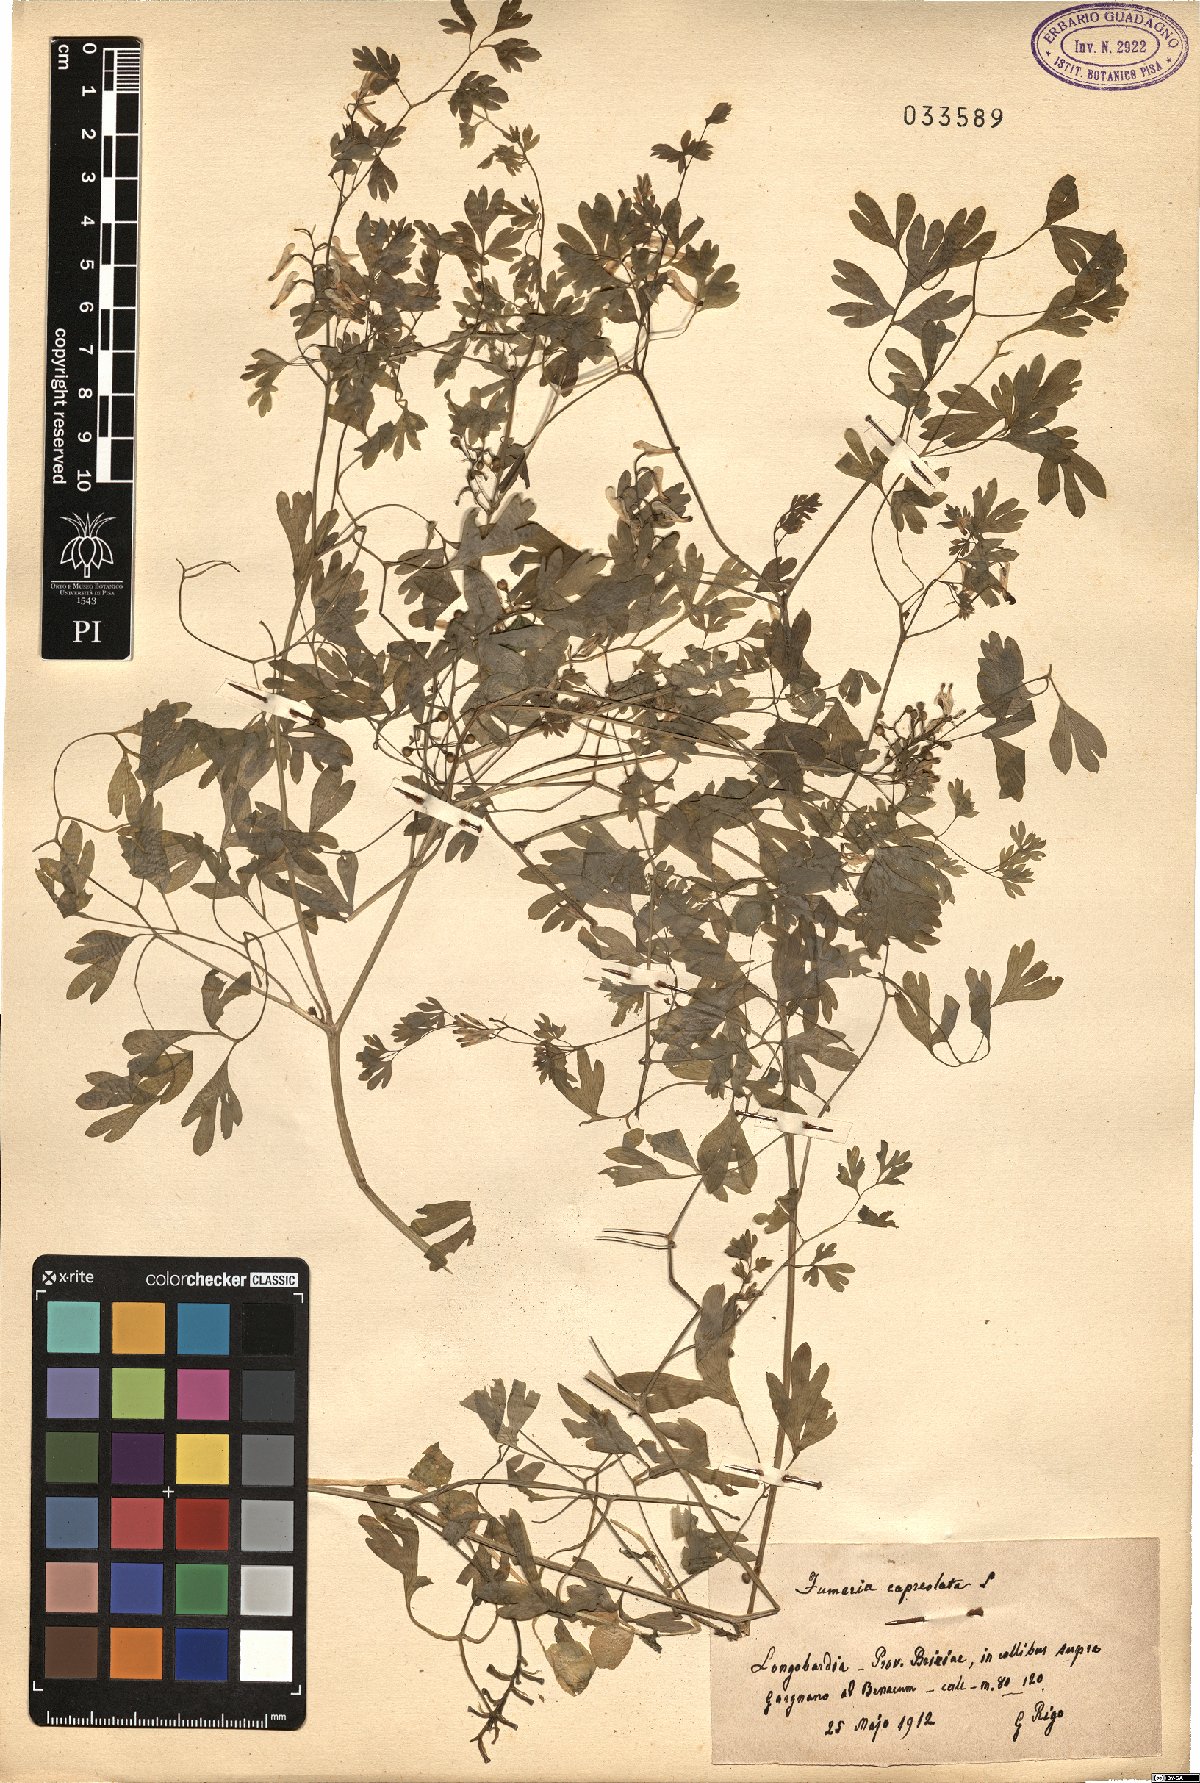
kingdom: Plantae
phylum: Tracheophyta
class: Magnoliopsida
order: Ranunculales
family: Papaveraceae
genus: Fumaria
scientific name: Fumaria capreolata
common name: White ramping-fumitory
